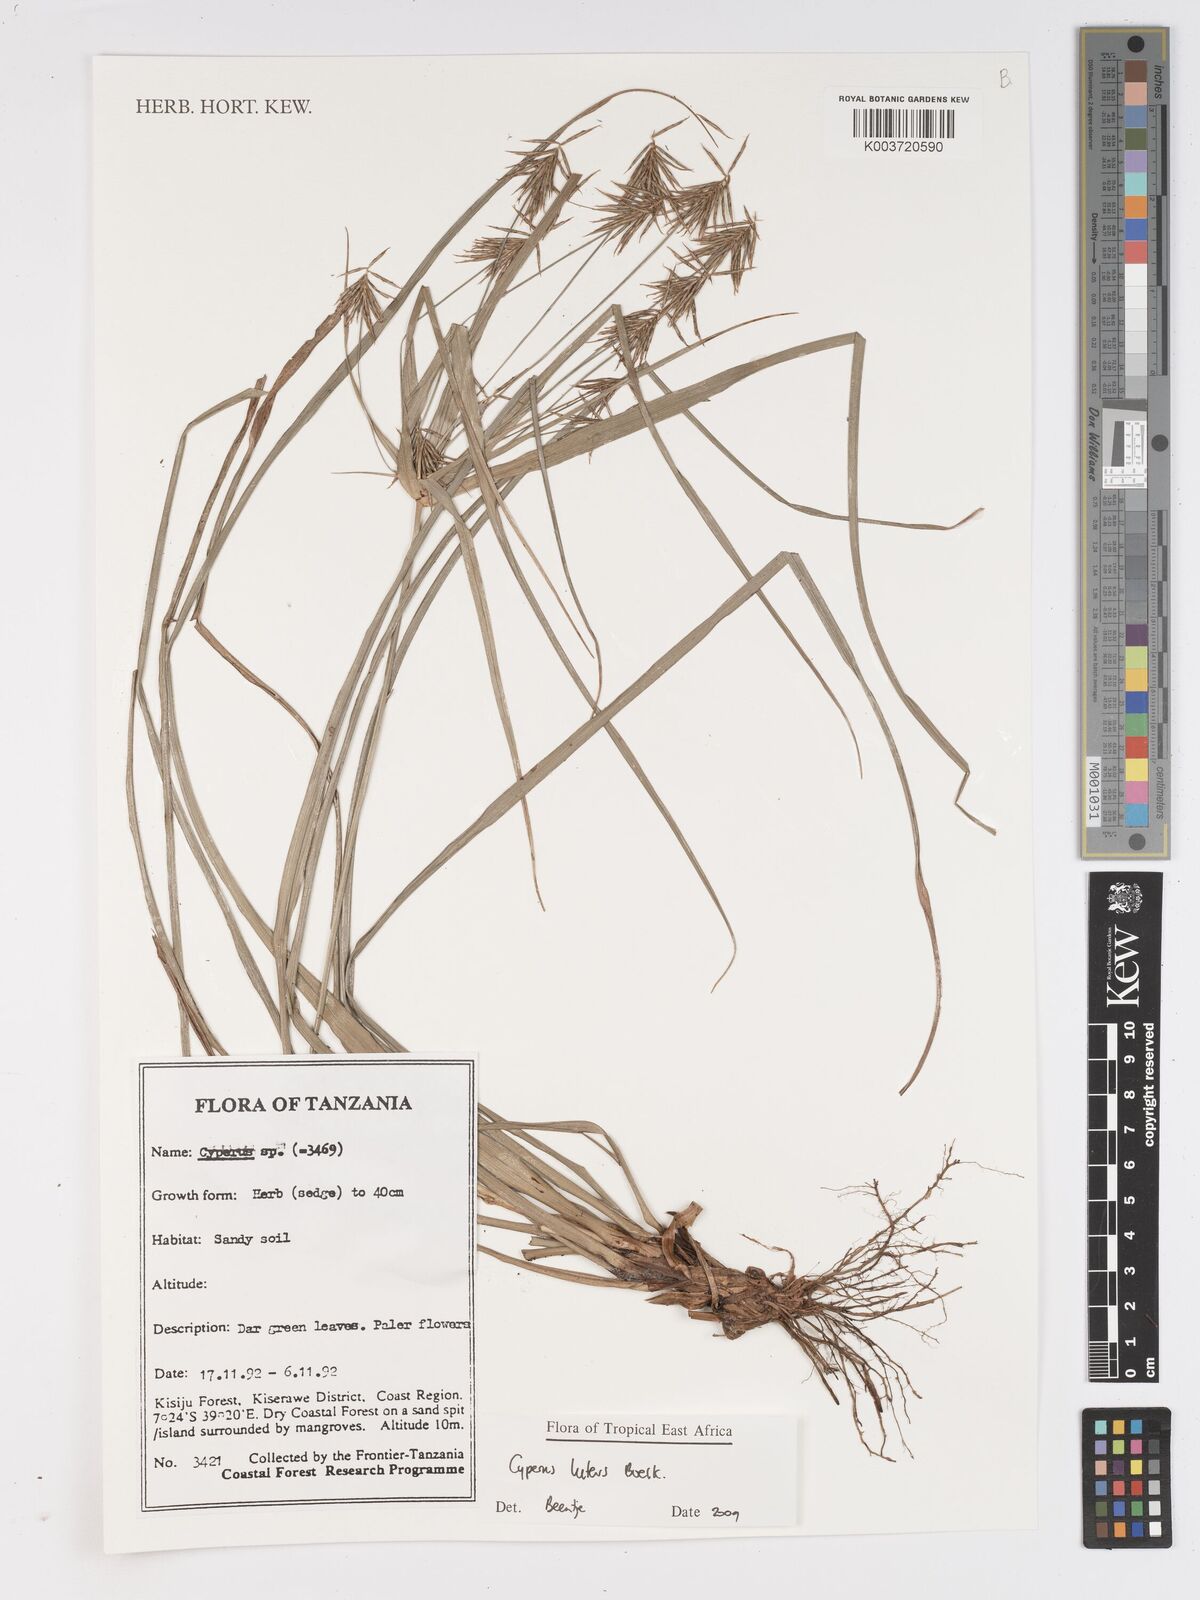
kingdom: Plantae
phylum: Tracheophyta
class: Liliopsida
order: Poales
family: Cyperaceae
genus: Cyperus
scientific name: Cyperus luteus
